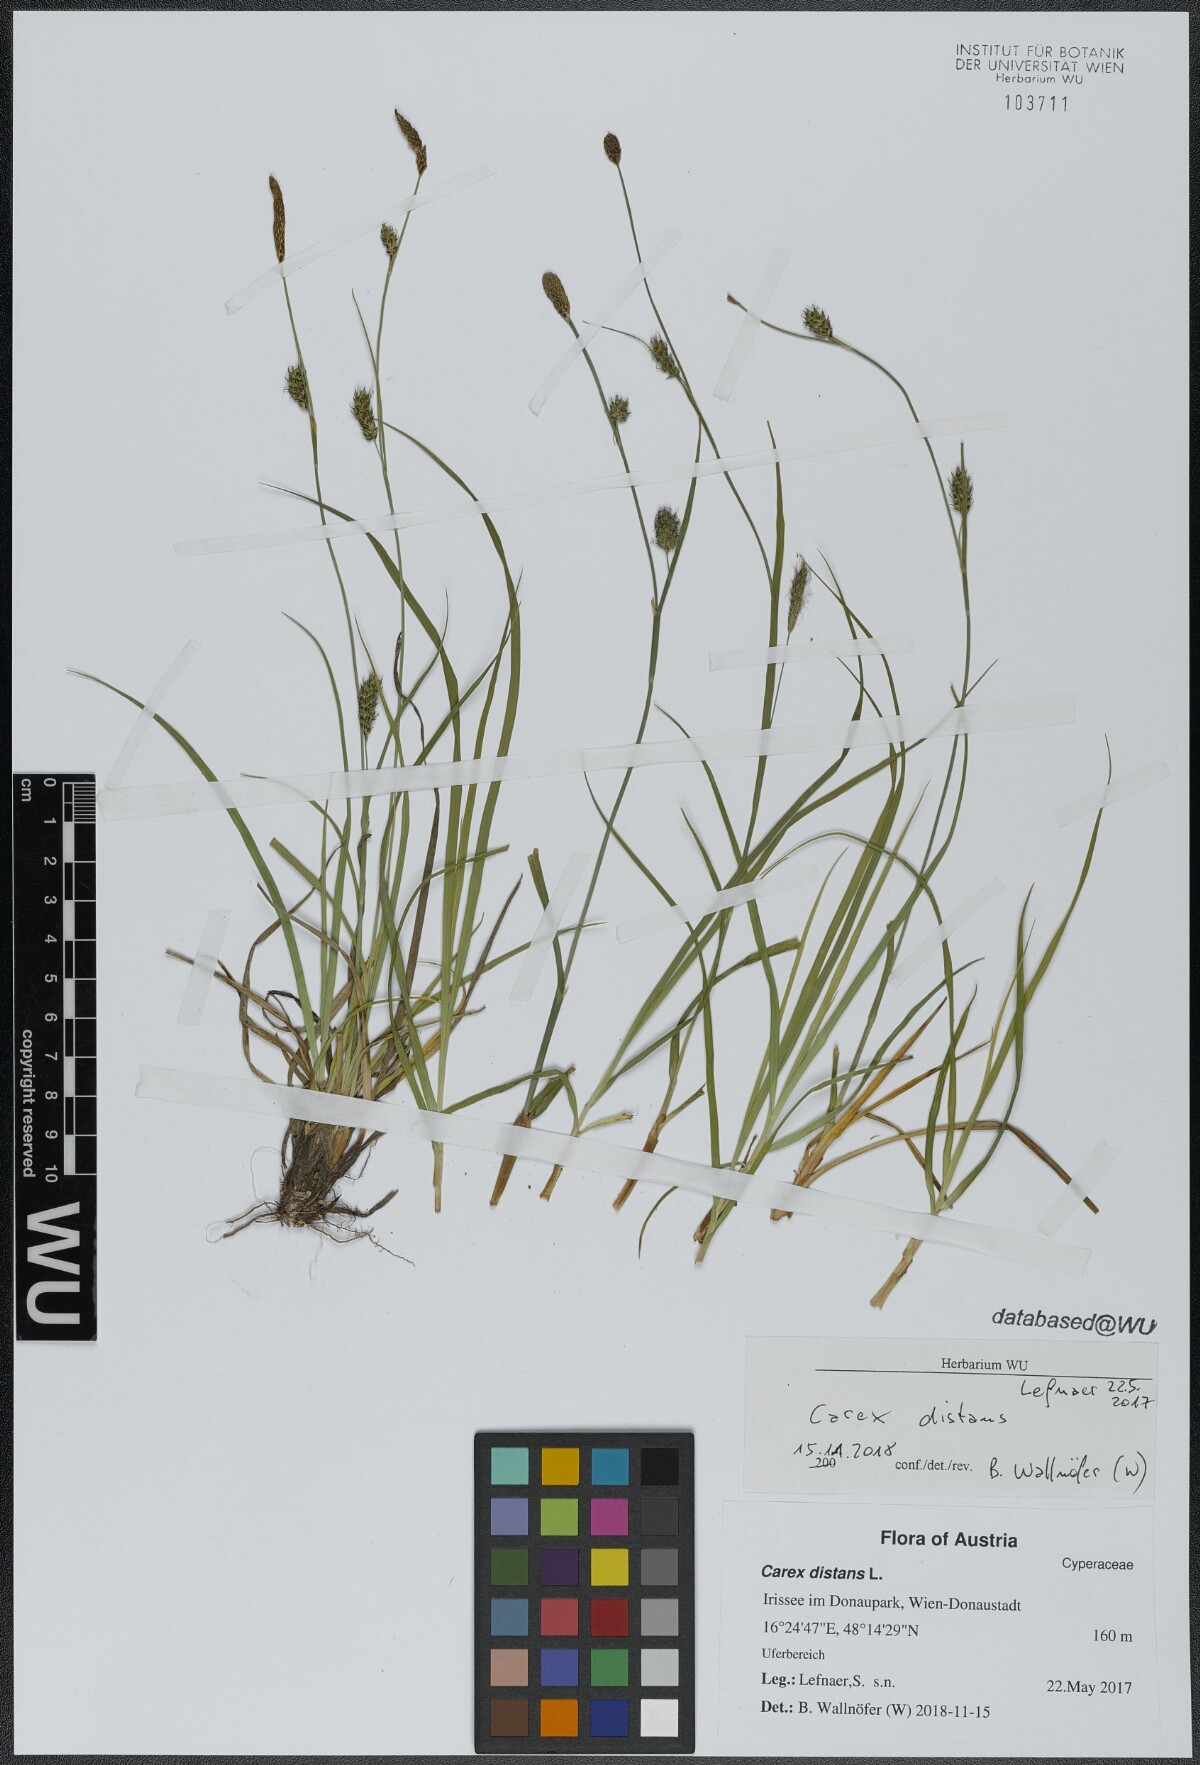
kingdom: Plantae
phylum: Tracheophyta
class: Liliopsida
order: Poales
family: Cyperaceae
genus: Carex
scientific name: Carex distans
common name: Distant sedge
